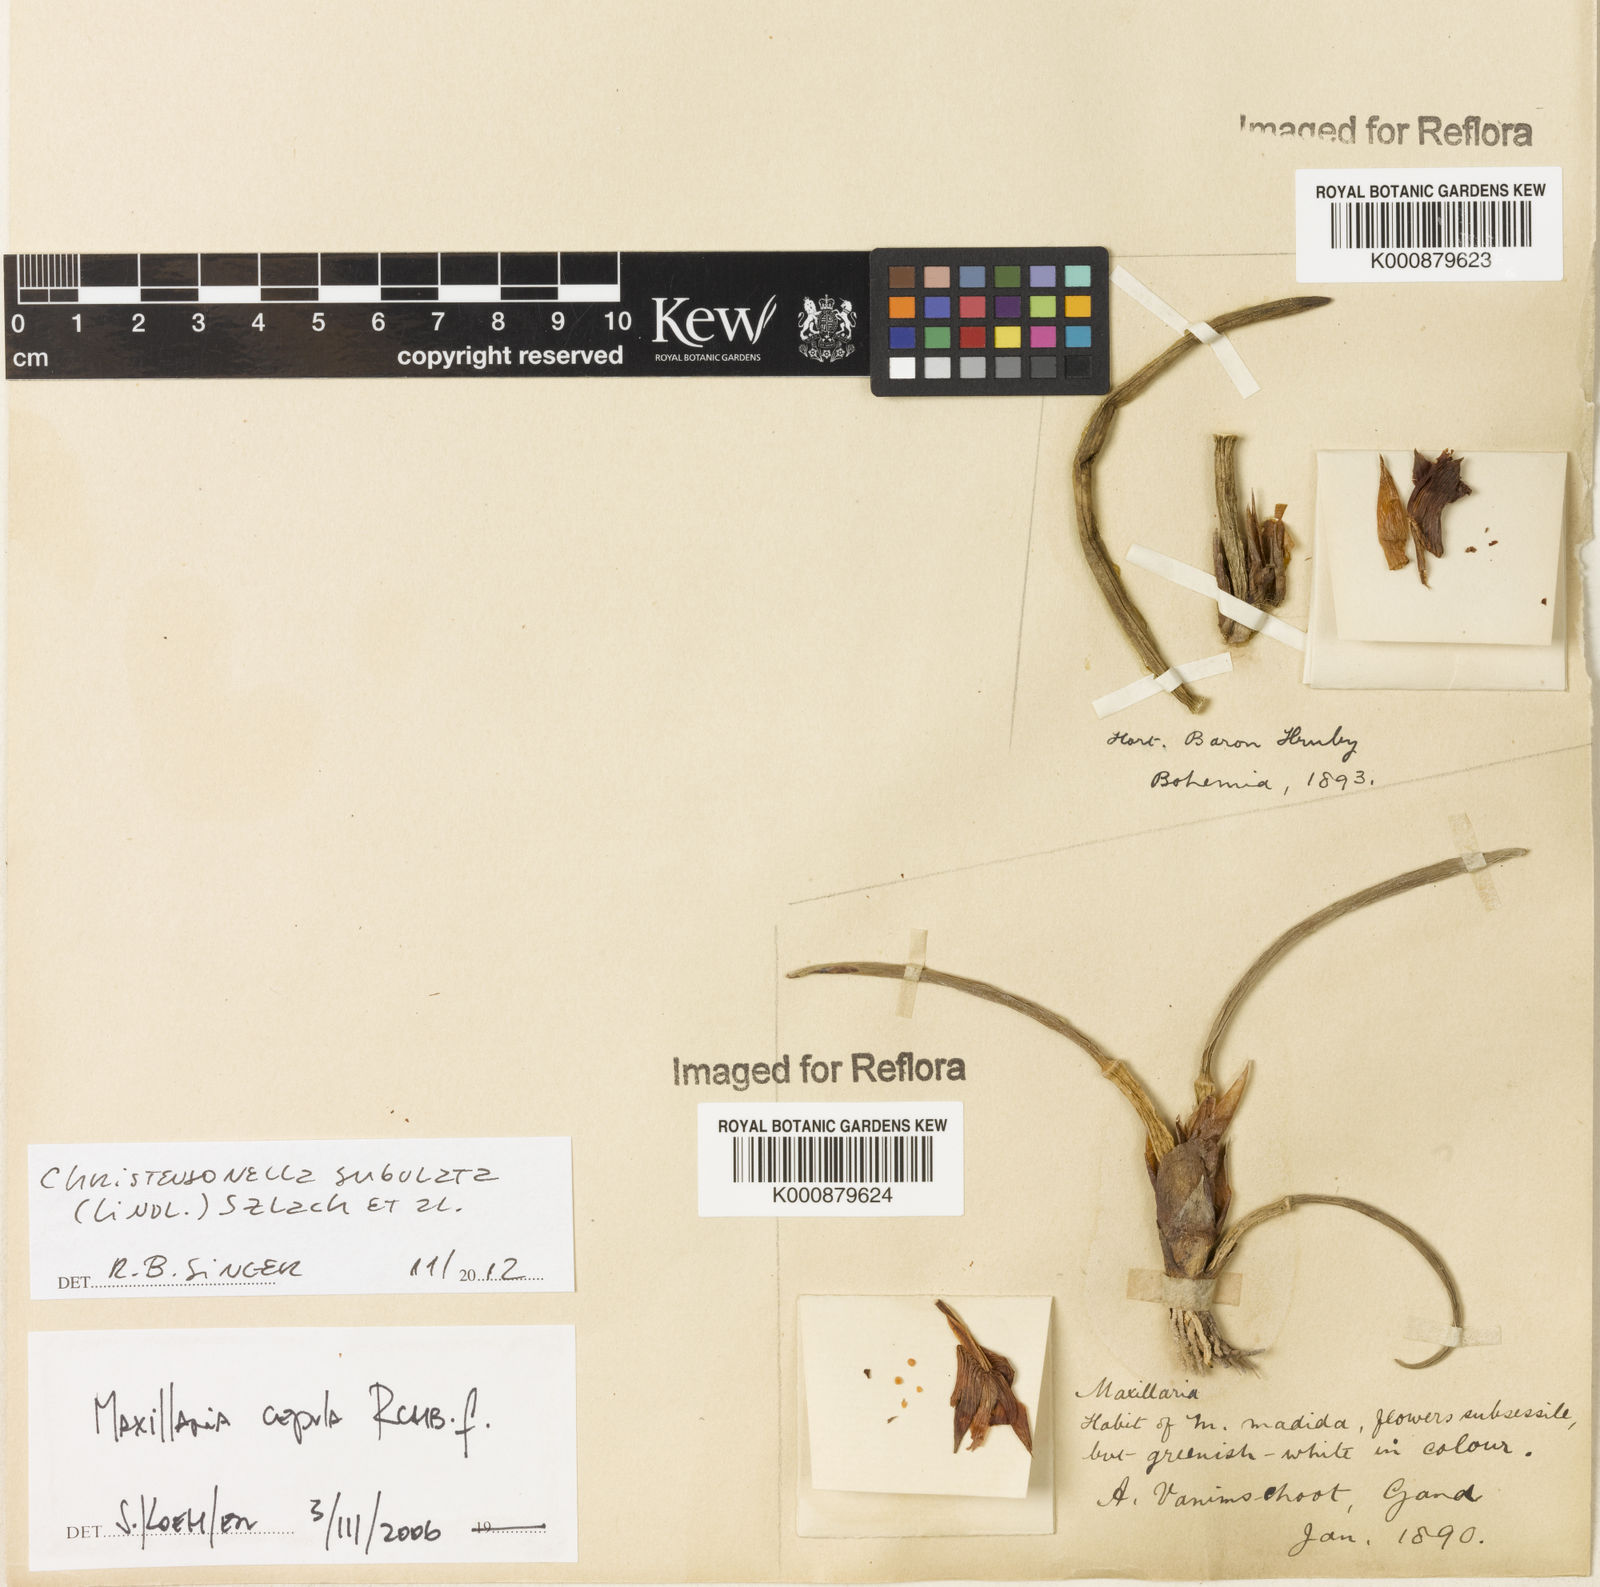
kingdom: Plantae
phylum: Tracheophyta
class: Liliopsida
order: Asparagales
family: Orchidaceae
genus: Maxillaria
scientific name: Maxillaria subulata
